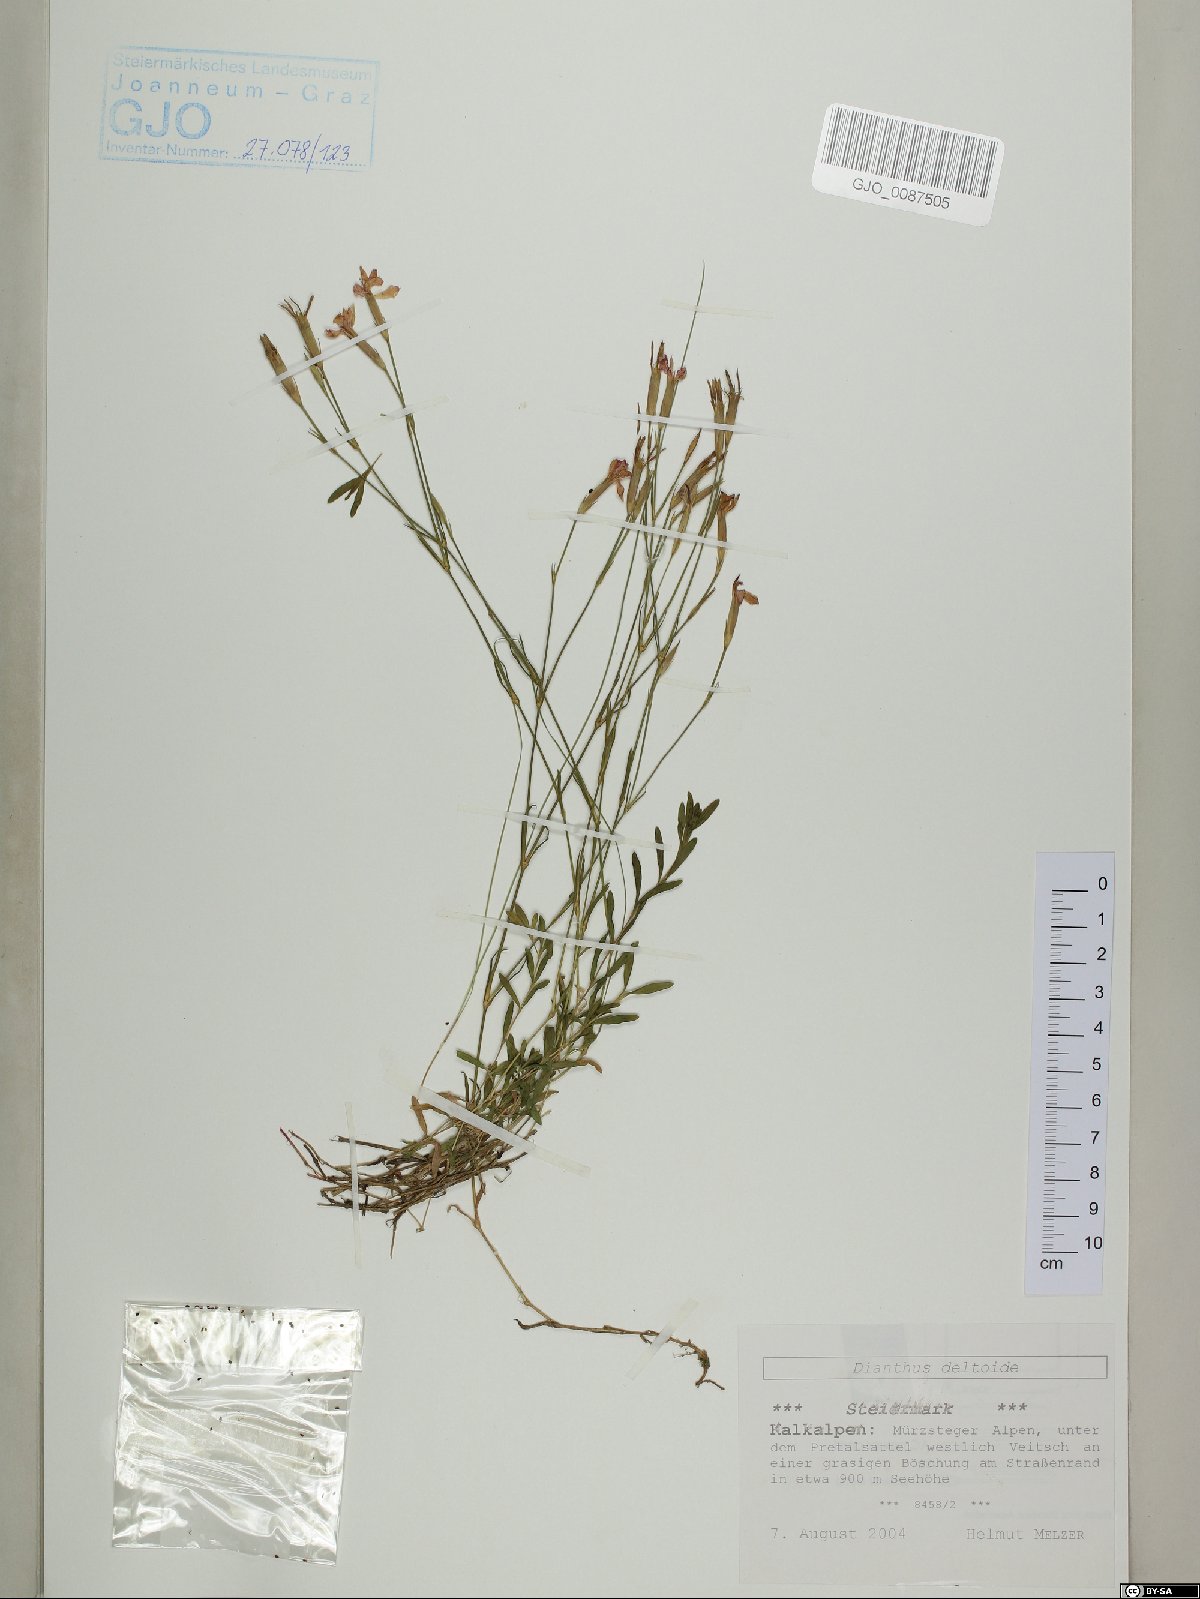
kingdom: Plantae
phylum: Tracheophyta
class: Magnoliopsida
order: Caryophyllales
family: Caryophyllaceae
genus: Dianthus
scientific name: Dianthus deltoides
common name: Maiden pink
